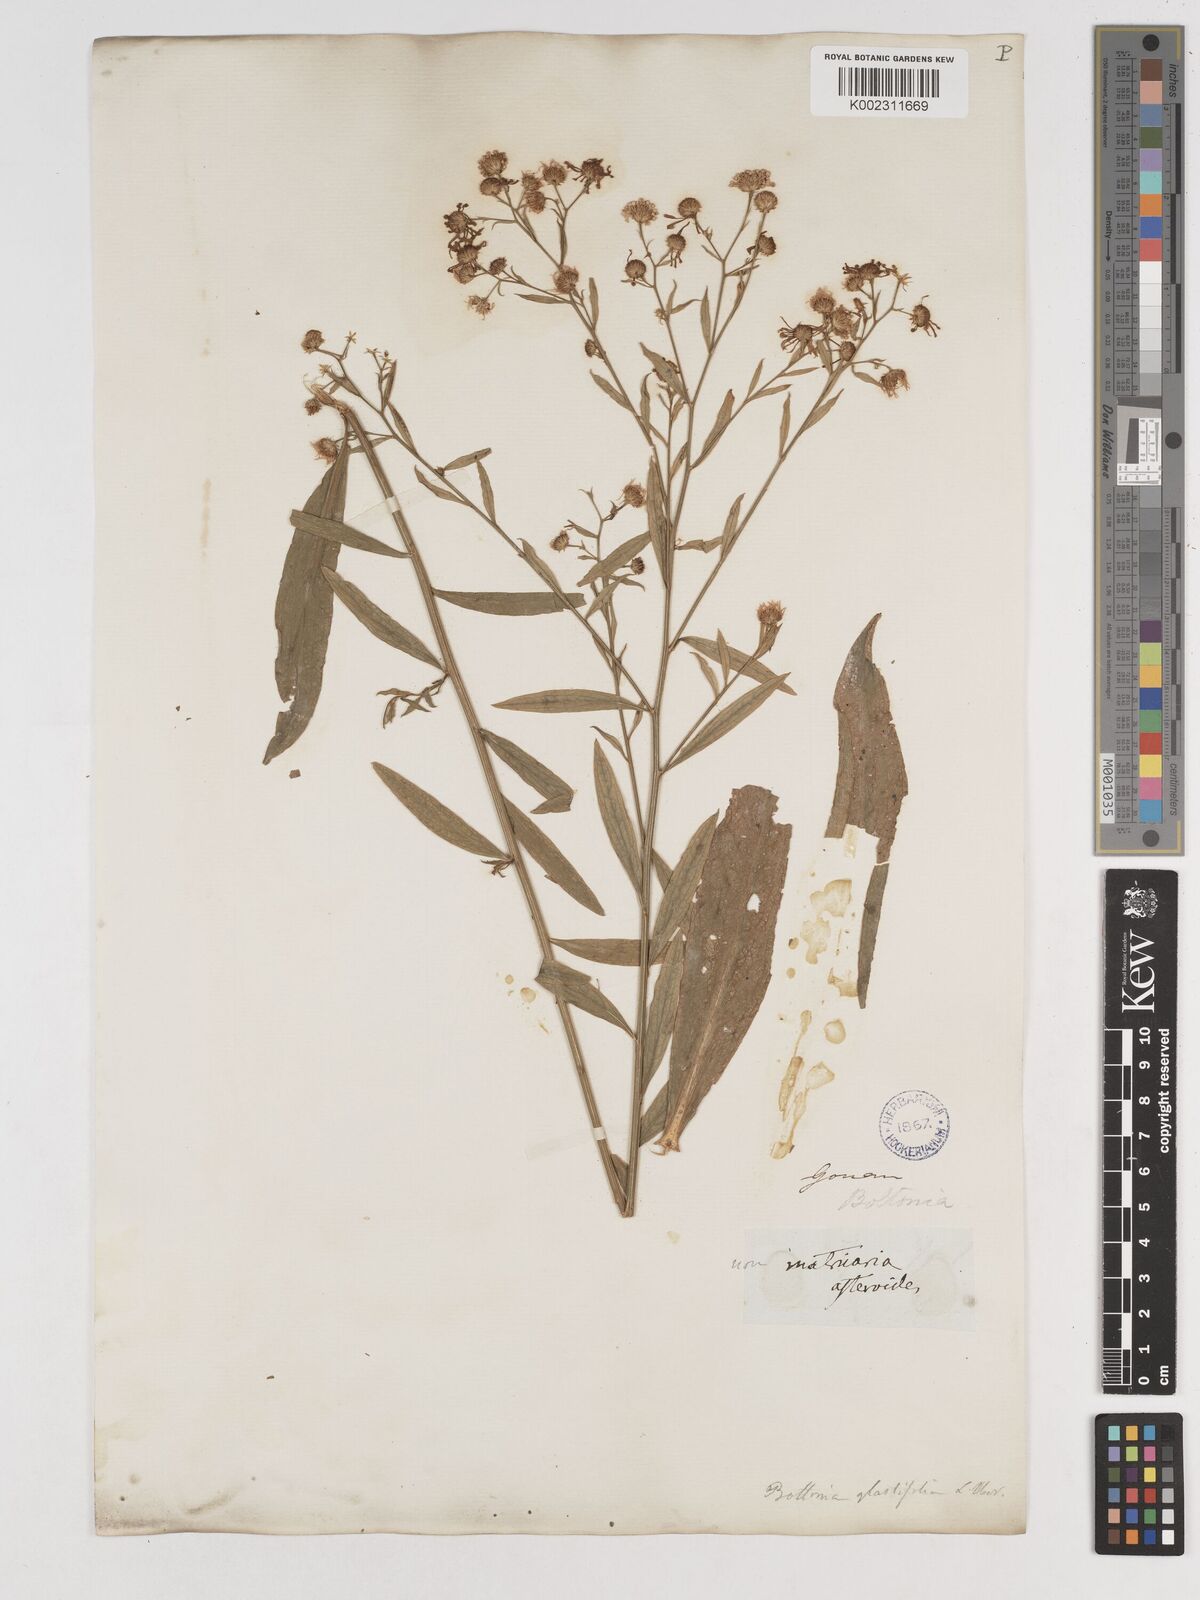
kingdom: Plantae
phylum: Tracheophyta
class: Magnoliopsida
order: Asterales
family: Asteraceae
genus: Boltonia
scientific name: Boltonia glastifolia
